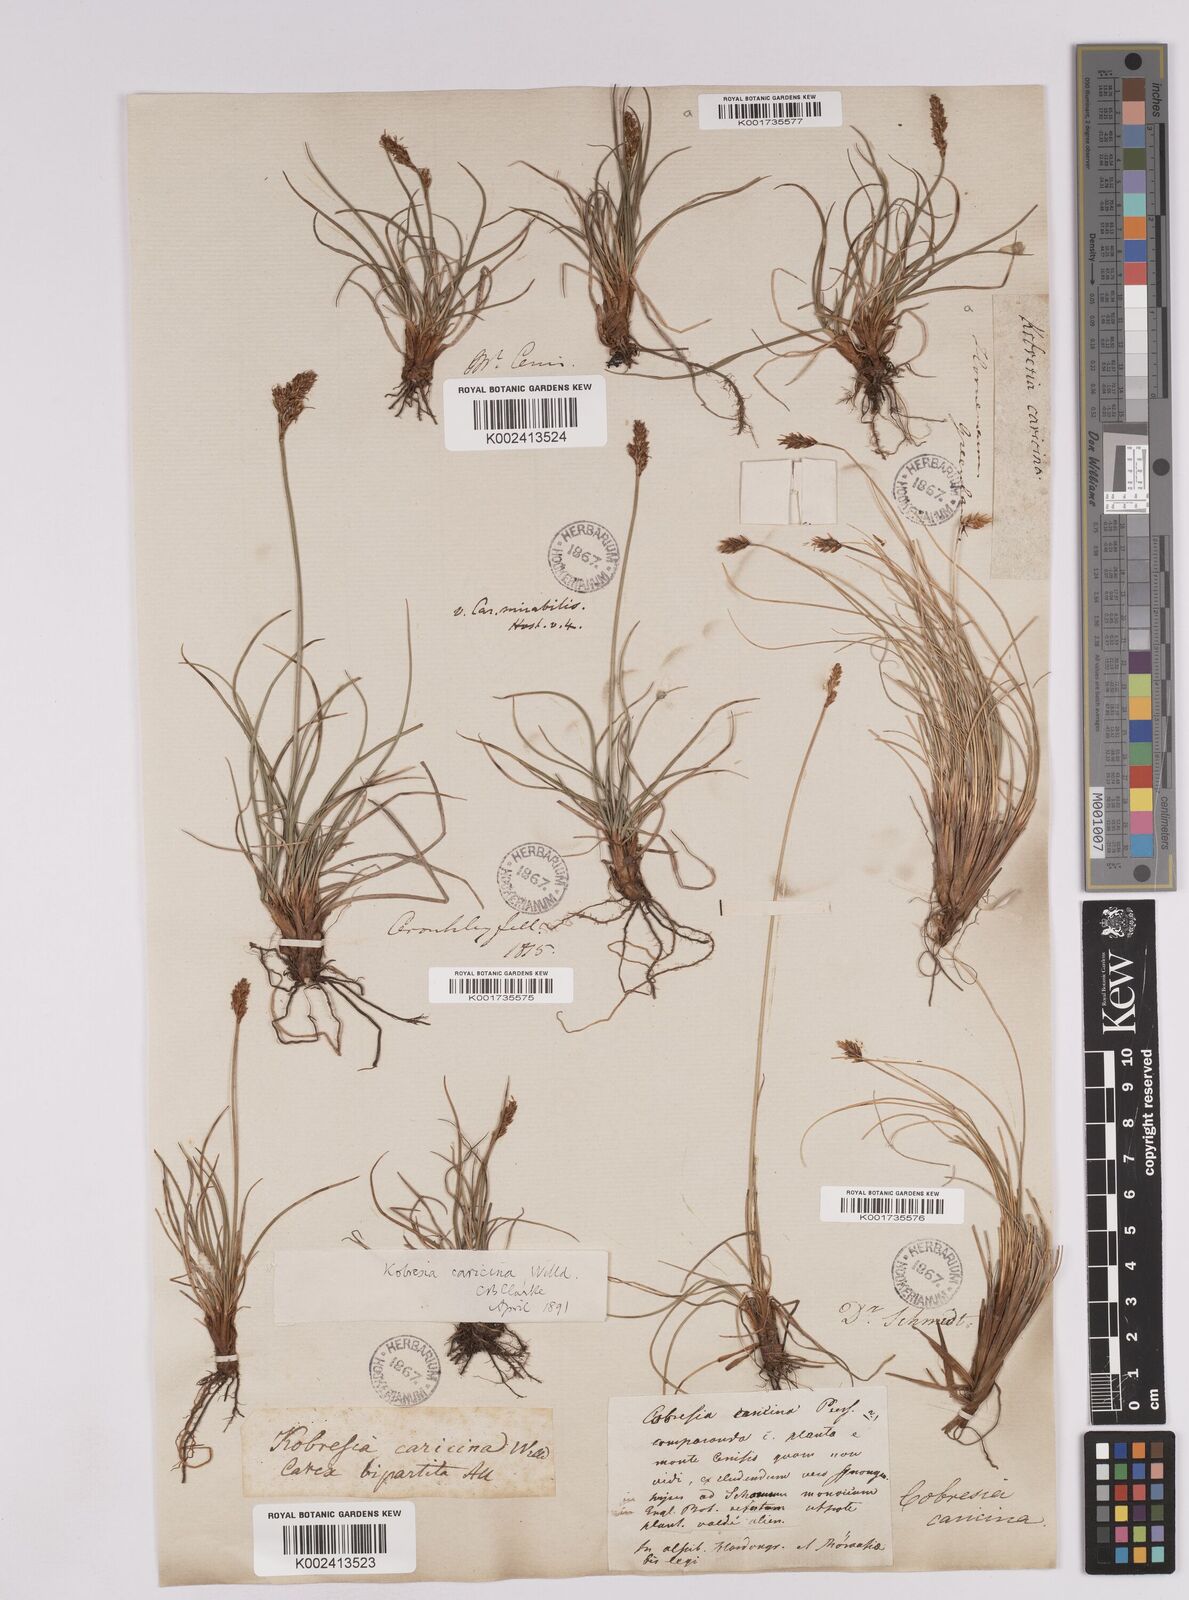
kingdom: Plantae
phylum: Tracheophyta
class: Liliopsida
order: Poales
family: Cyperaceae
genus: Carex
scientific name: Carex simpliciuscula
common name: Simple bog sedge
